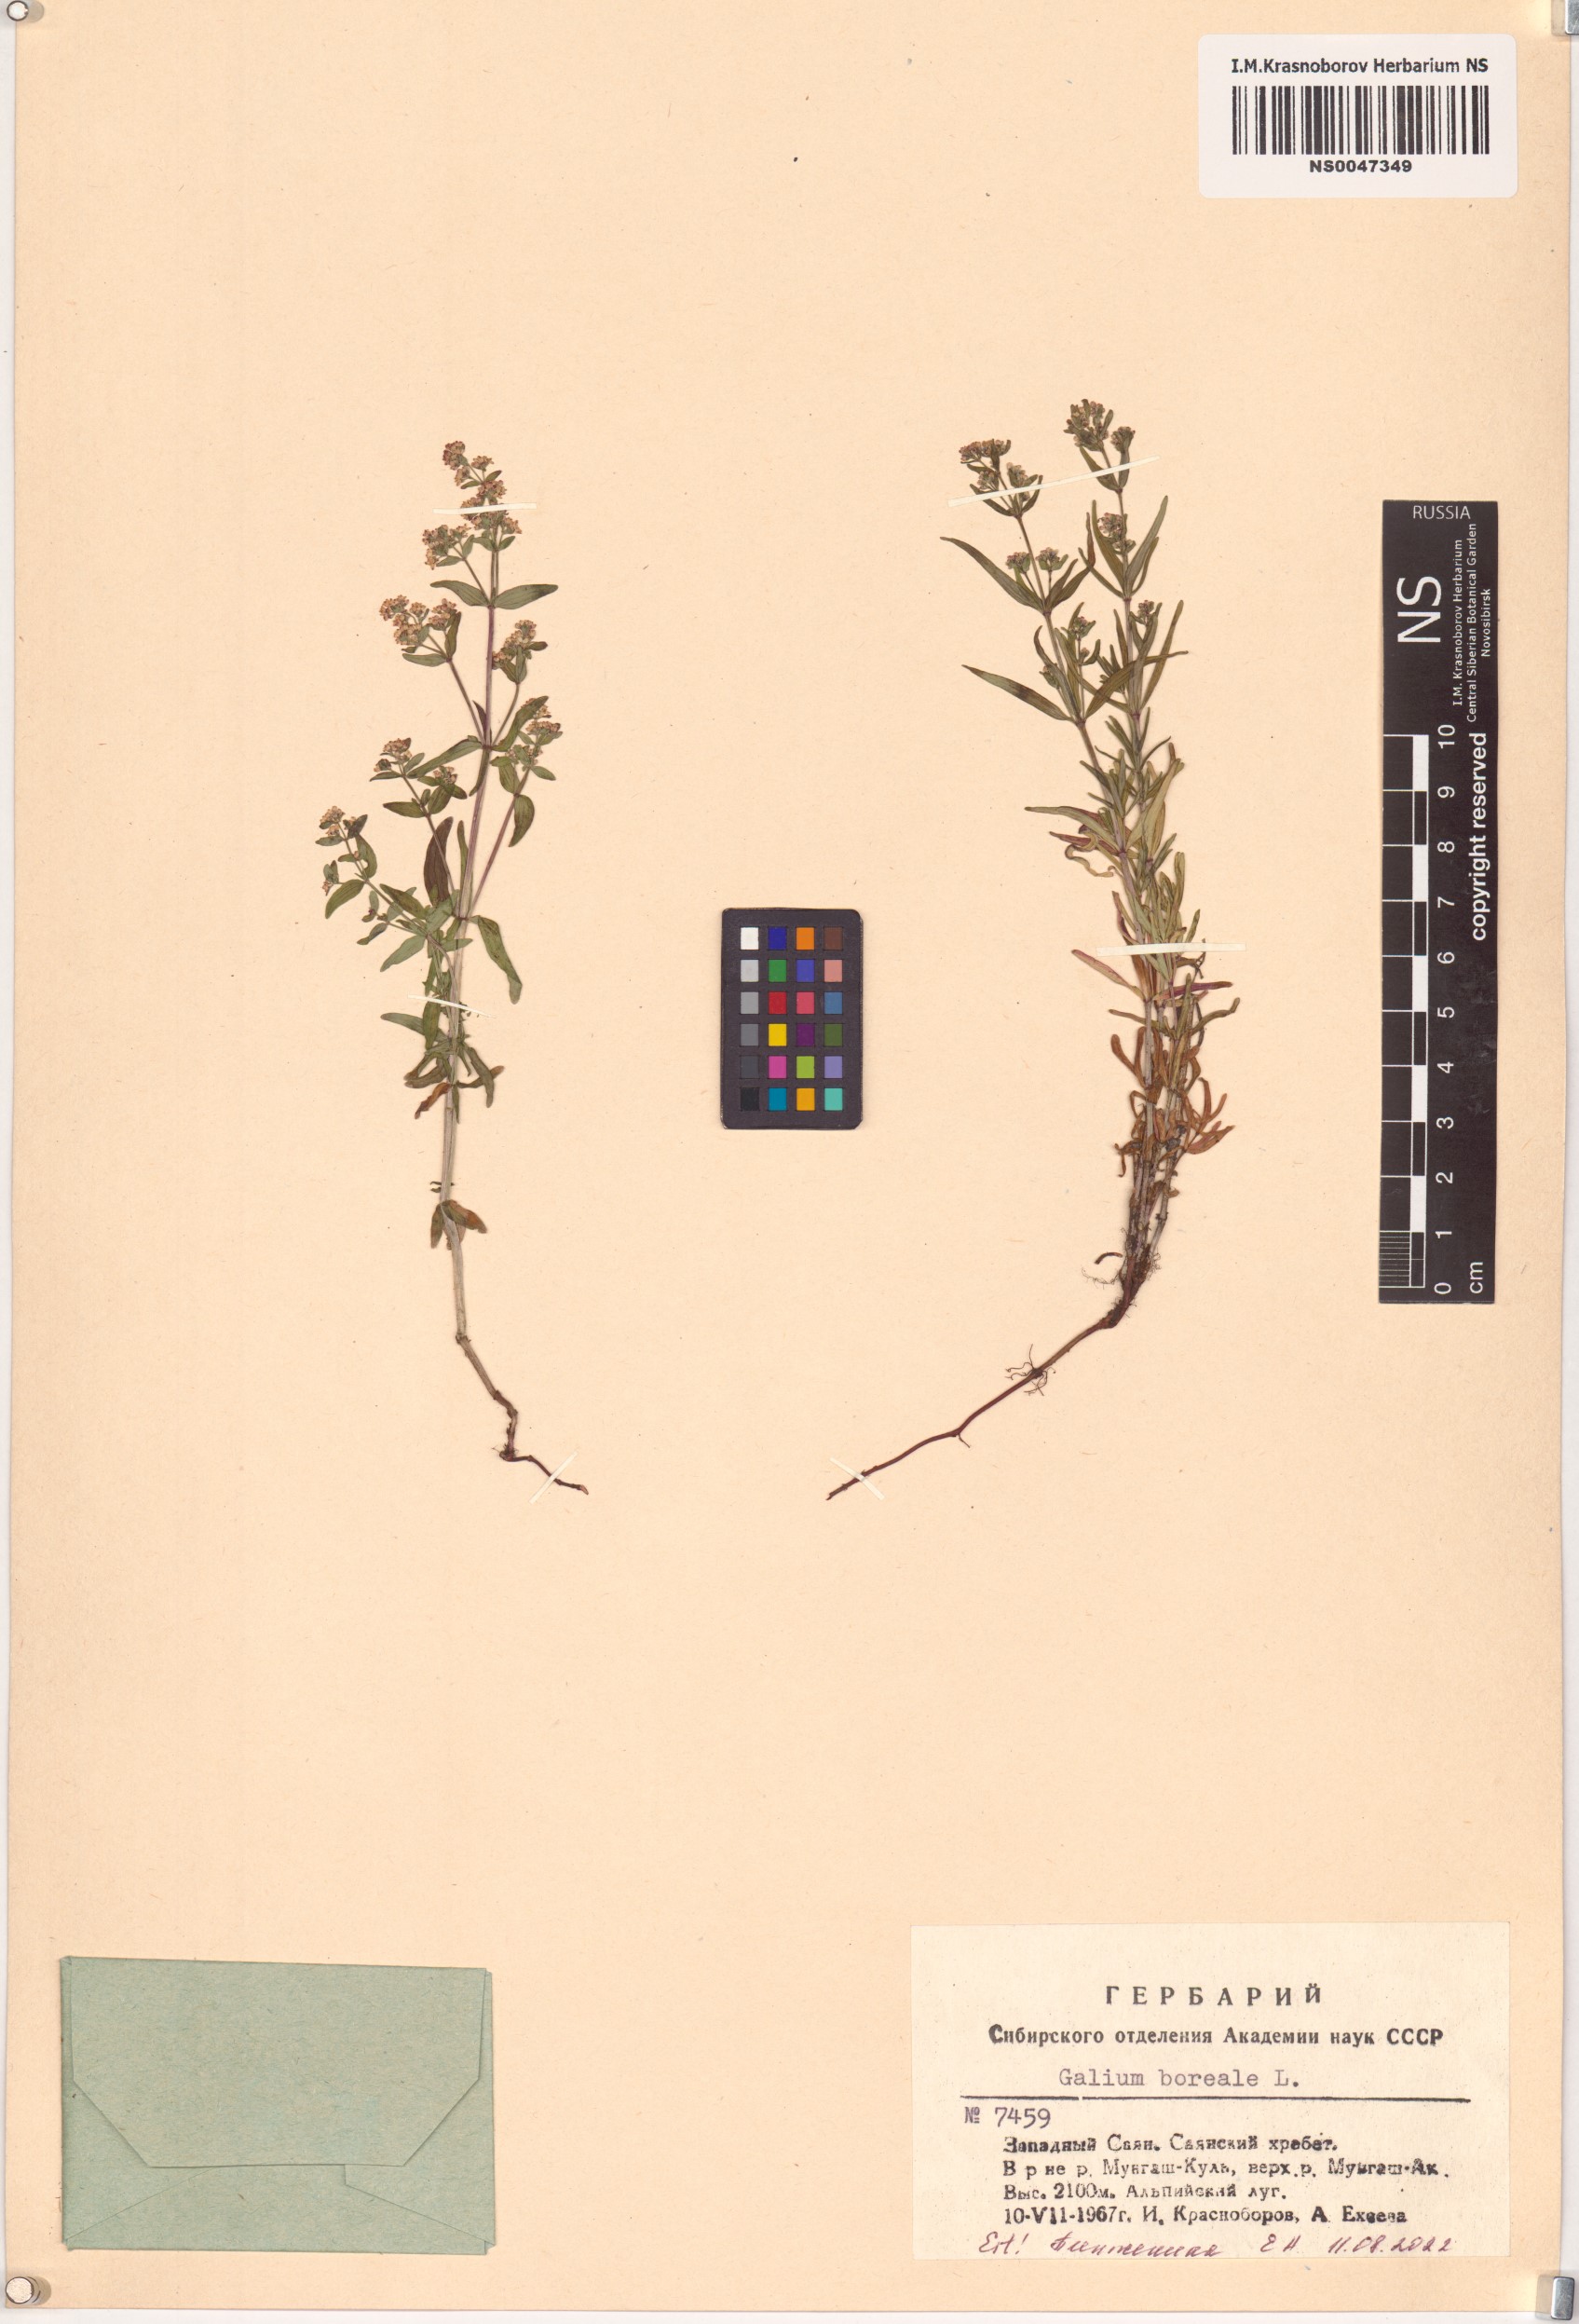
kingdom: Plantae
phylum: Tracheophyta
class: Magnoliopsida
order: Gentianales
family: Rubiaceae
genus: Galium
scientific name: Galium boreale
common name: Northern bedstraw
